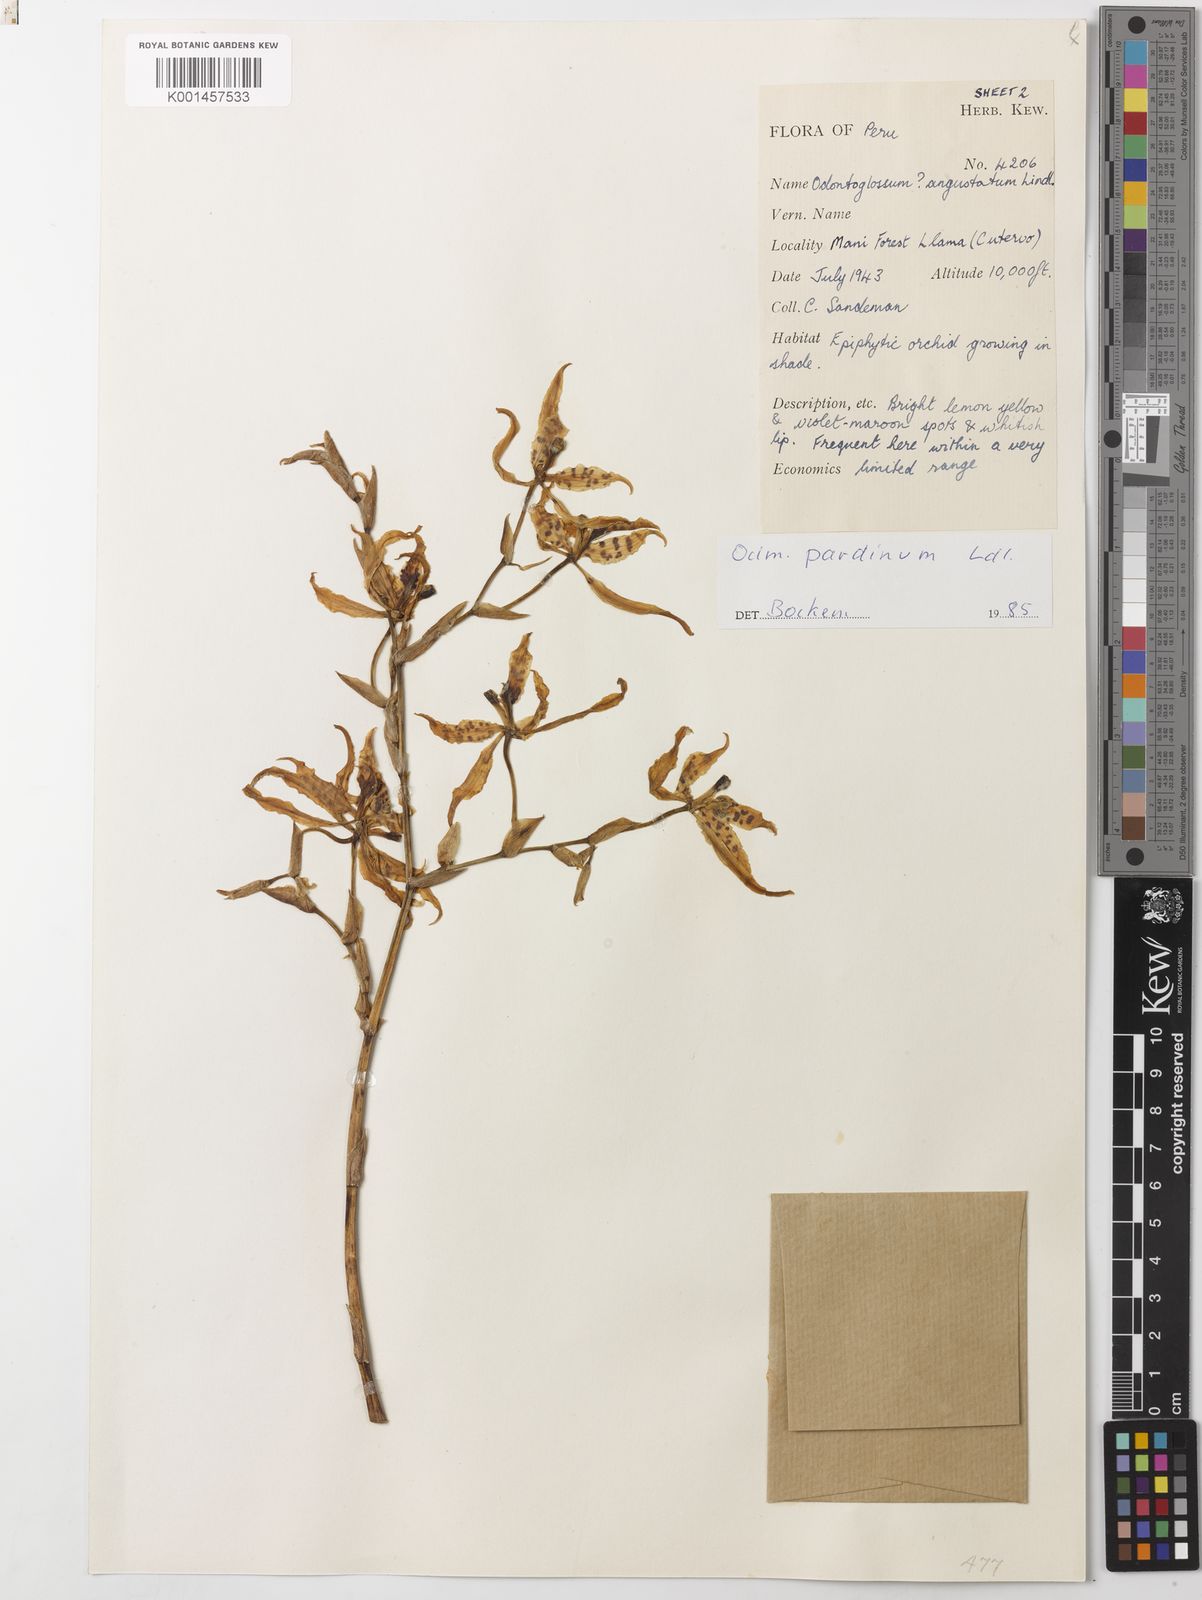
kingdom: Plantae
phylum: Tracheophyta
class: Liliopsida
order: Asparagales
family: Orchidaceae
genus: Cyrtochilum
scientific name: Cyrtochilum pardinum
